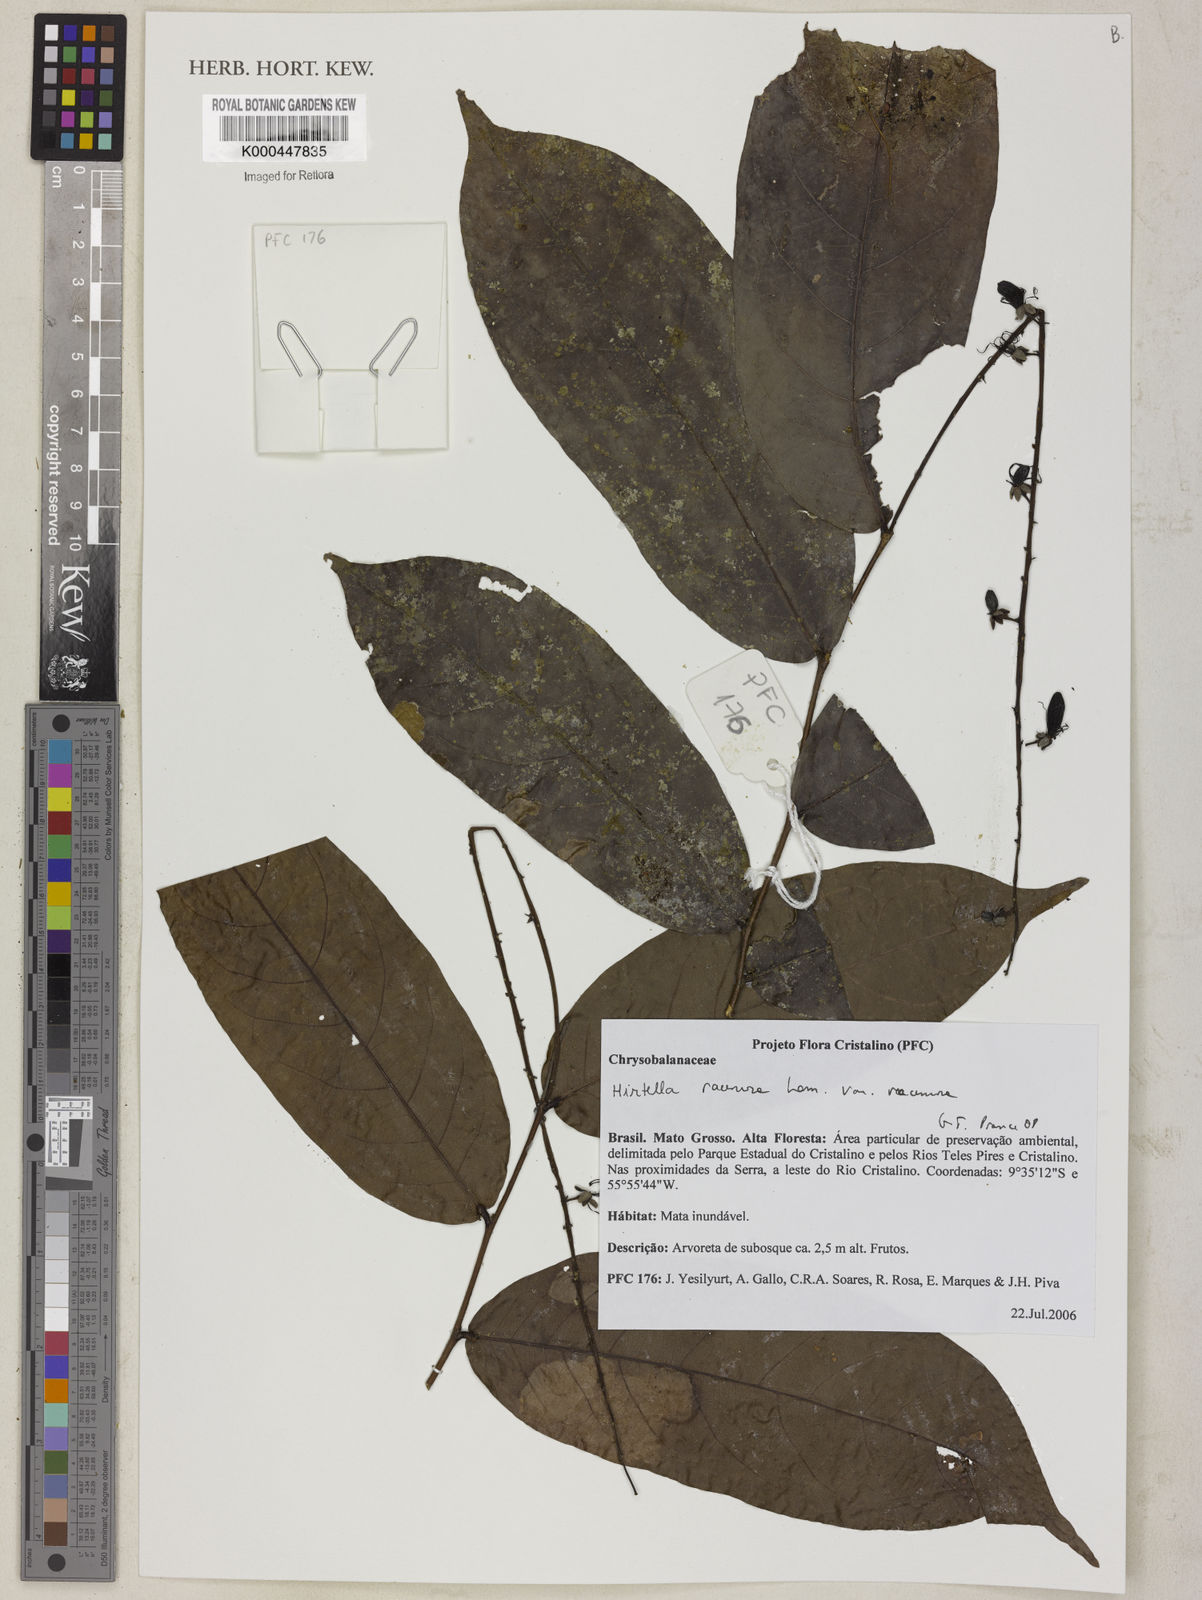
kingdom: Plantae
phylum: Tracheophyta
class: Magnoliopsida
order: Malpighiales
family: Chrysobalanaceae
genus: Hirtella
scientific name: Hirtella racemosa
